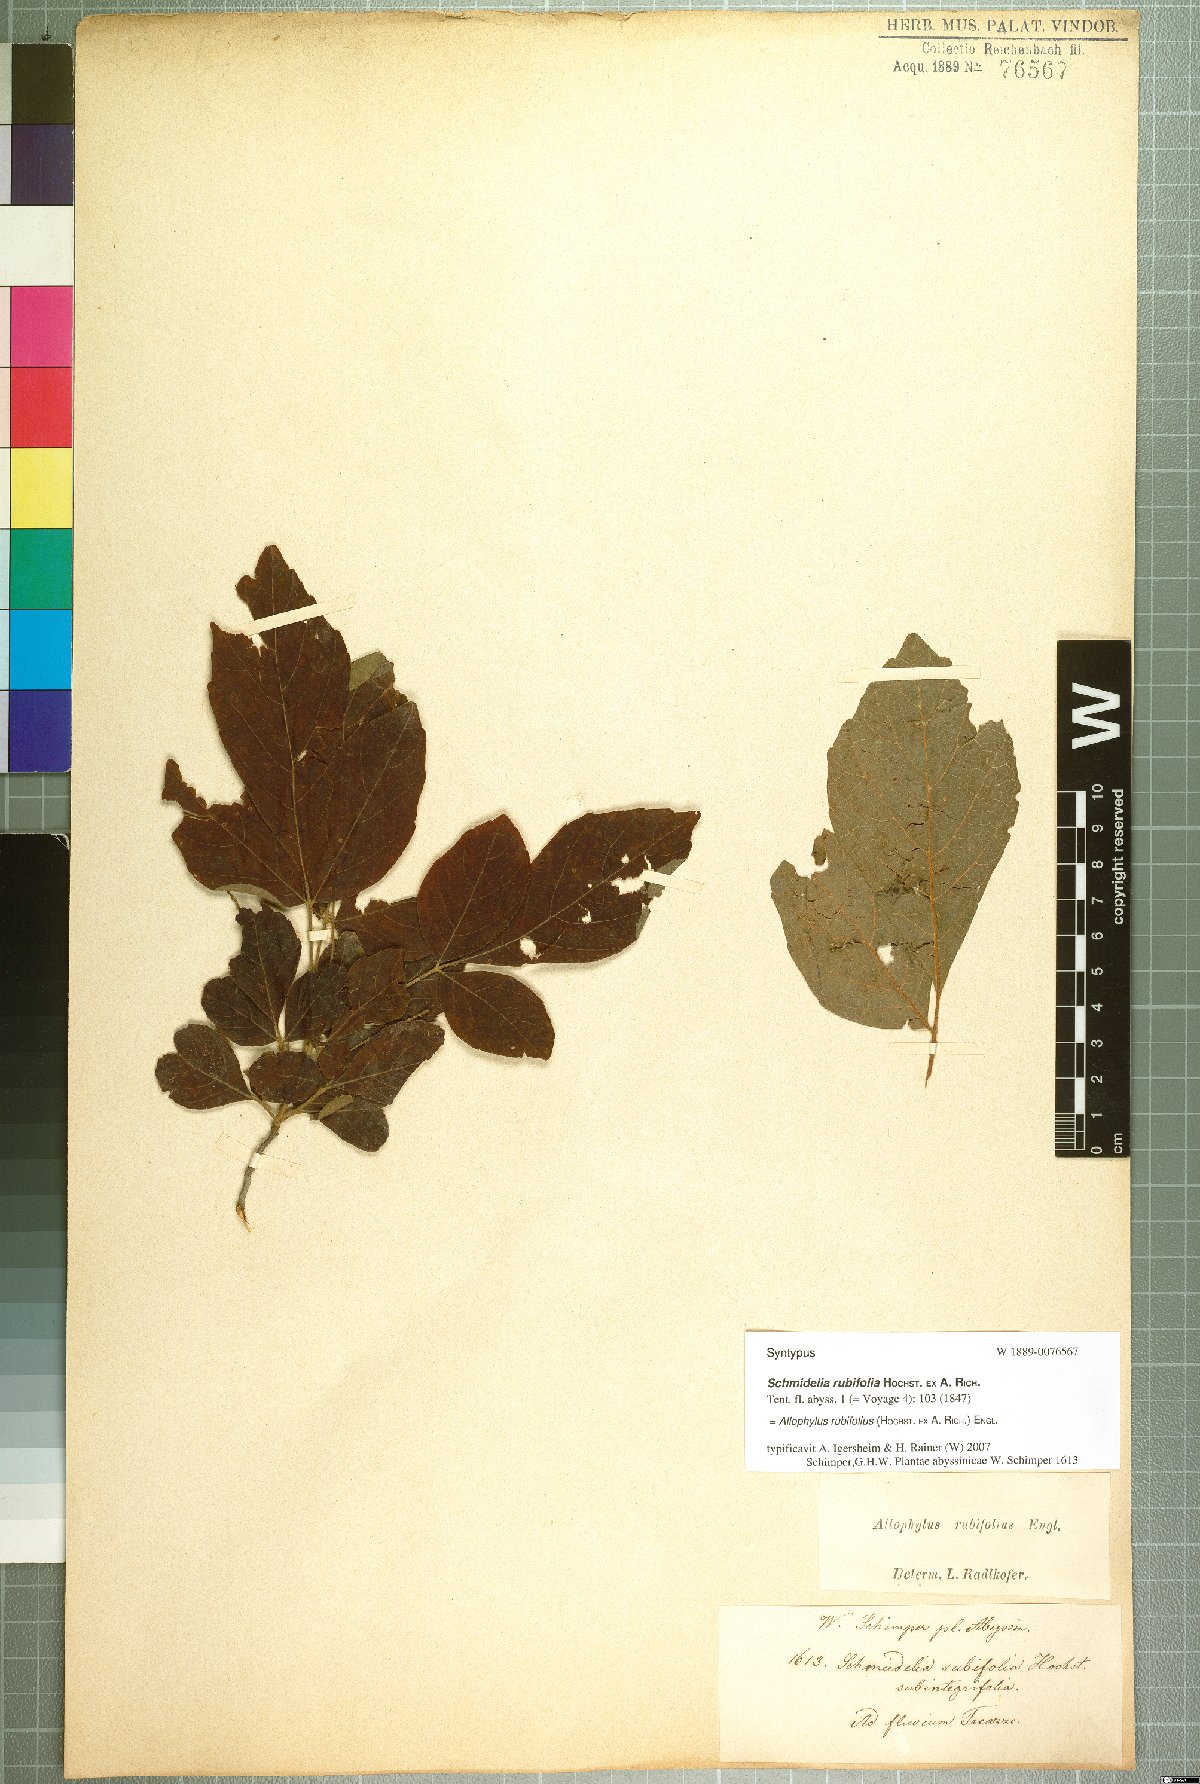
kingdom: Plantae
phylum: Tracheophyta
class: Magnoliopsida
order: Sapindales
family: Sapindaceae
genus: Allophylus
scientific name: Allophylus rubifolius
